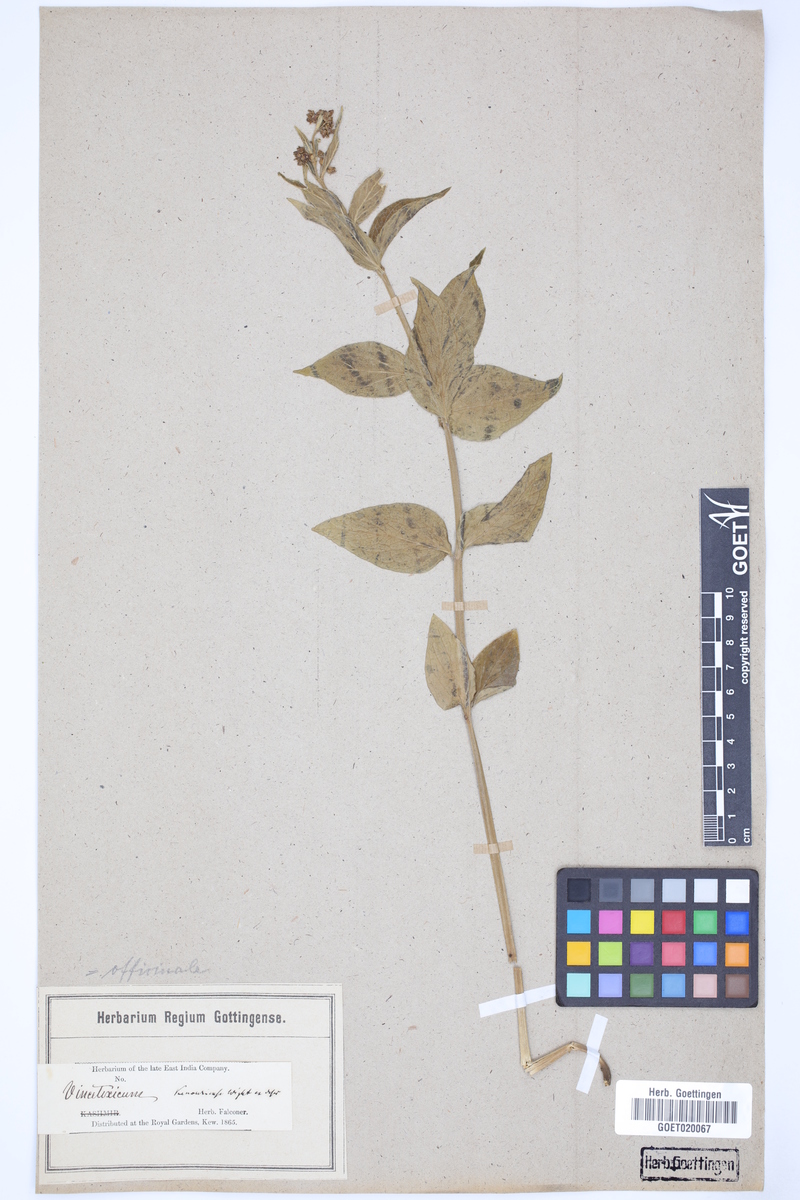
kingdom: Plantae
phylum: Tracheophyta
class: Magnoliopsida
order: Gentianales
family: Apocynaceae
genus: Vincetoxicum
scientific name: Vincetoxicum hirundinaria
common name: White swallowwort
